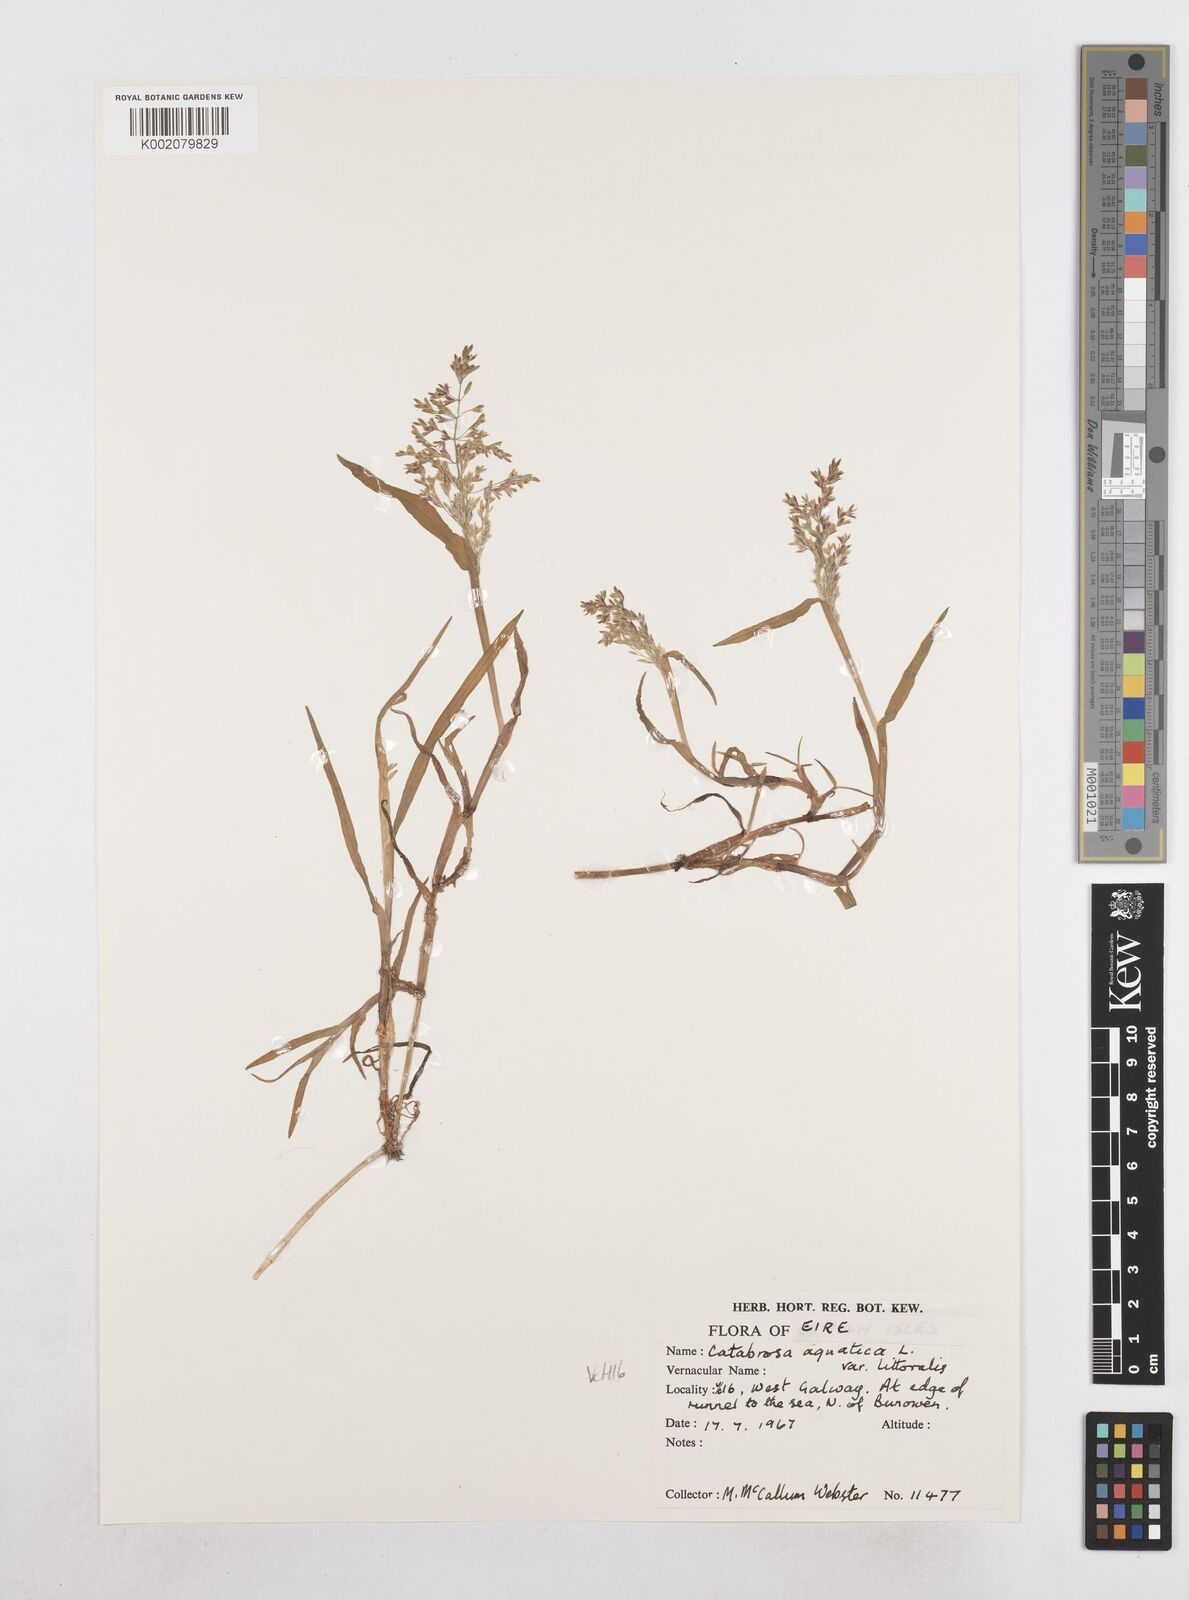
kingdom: Plantae
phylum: Tracheophyta
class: Liliopsida
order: Poales
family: Poaceae
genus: Catabrosa
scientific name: Catabrosa aquatica
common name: Whorl-grass
